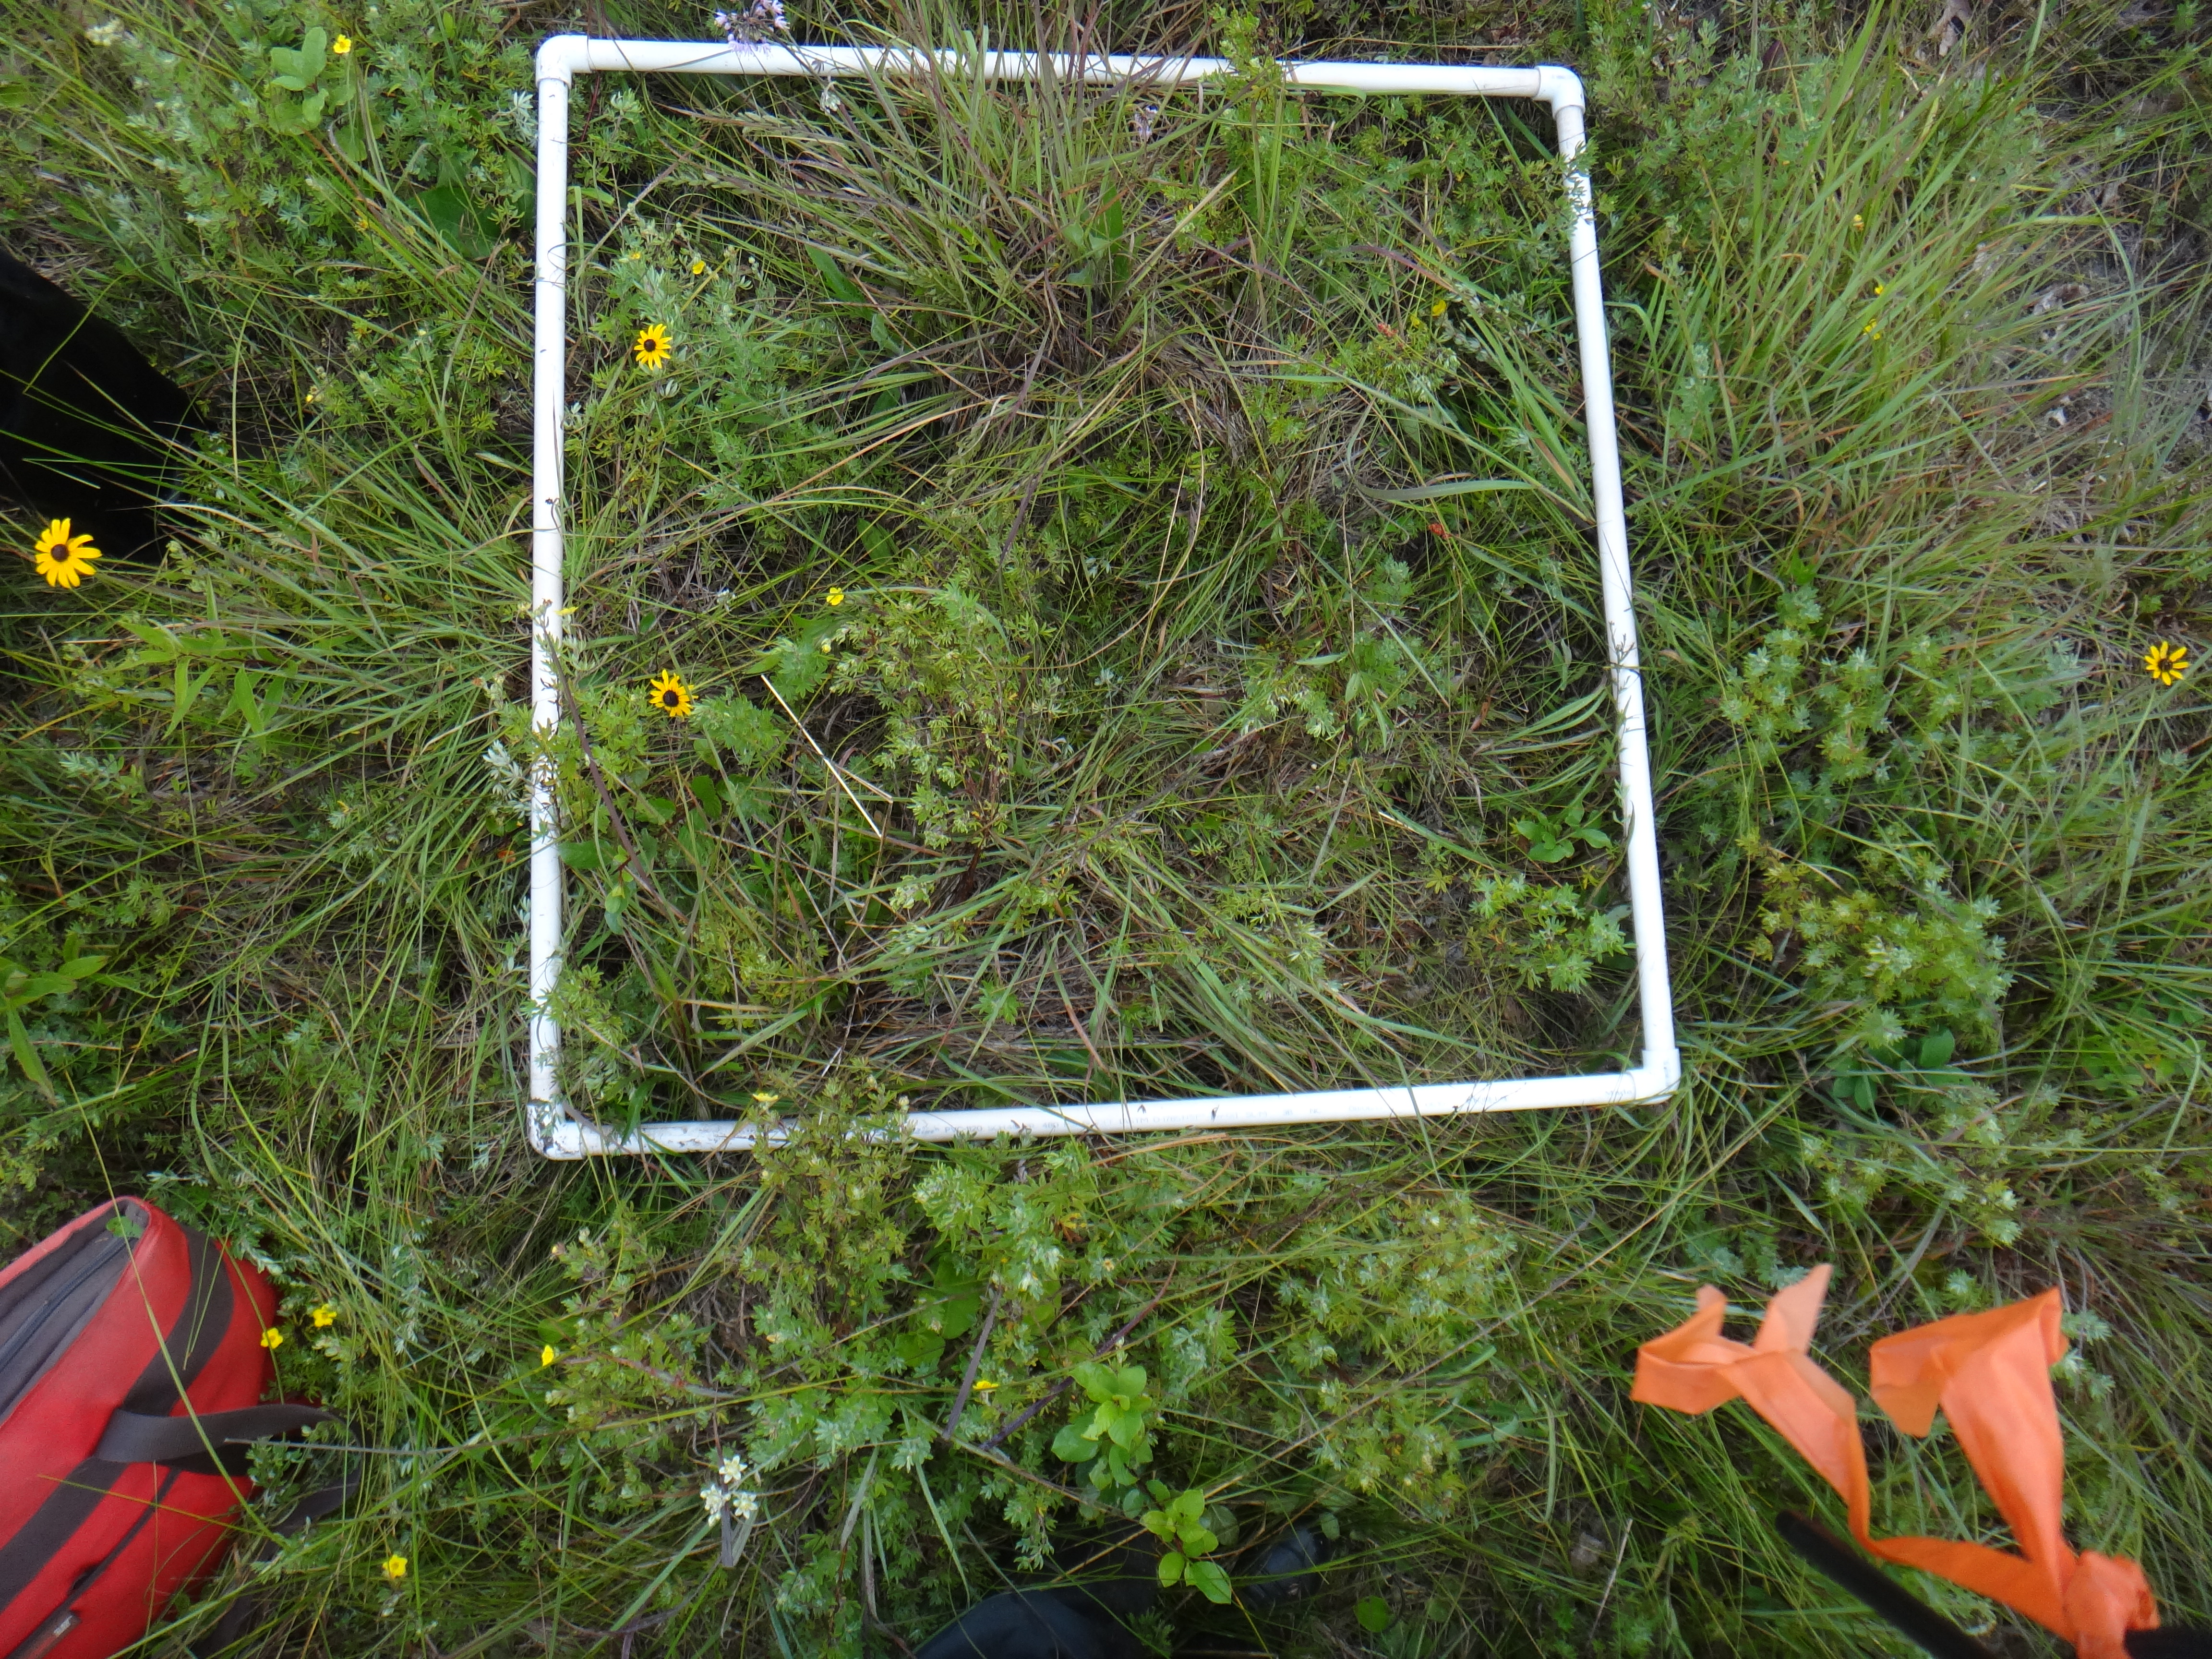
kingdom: Plantae
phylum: Tracheophyta
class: Liliopsida
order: Asparagales
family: Amaryllidaceae
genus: Allium
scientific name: Allium cernuum
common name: Nodding onion
